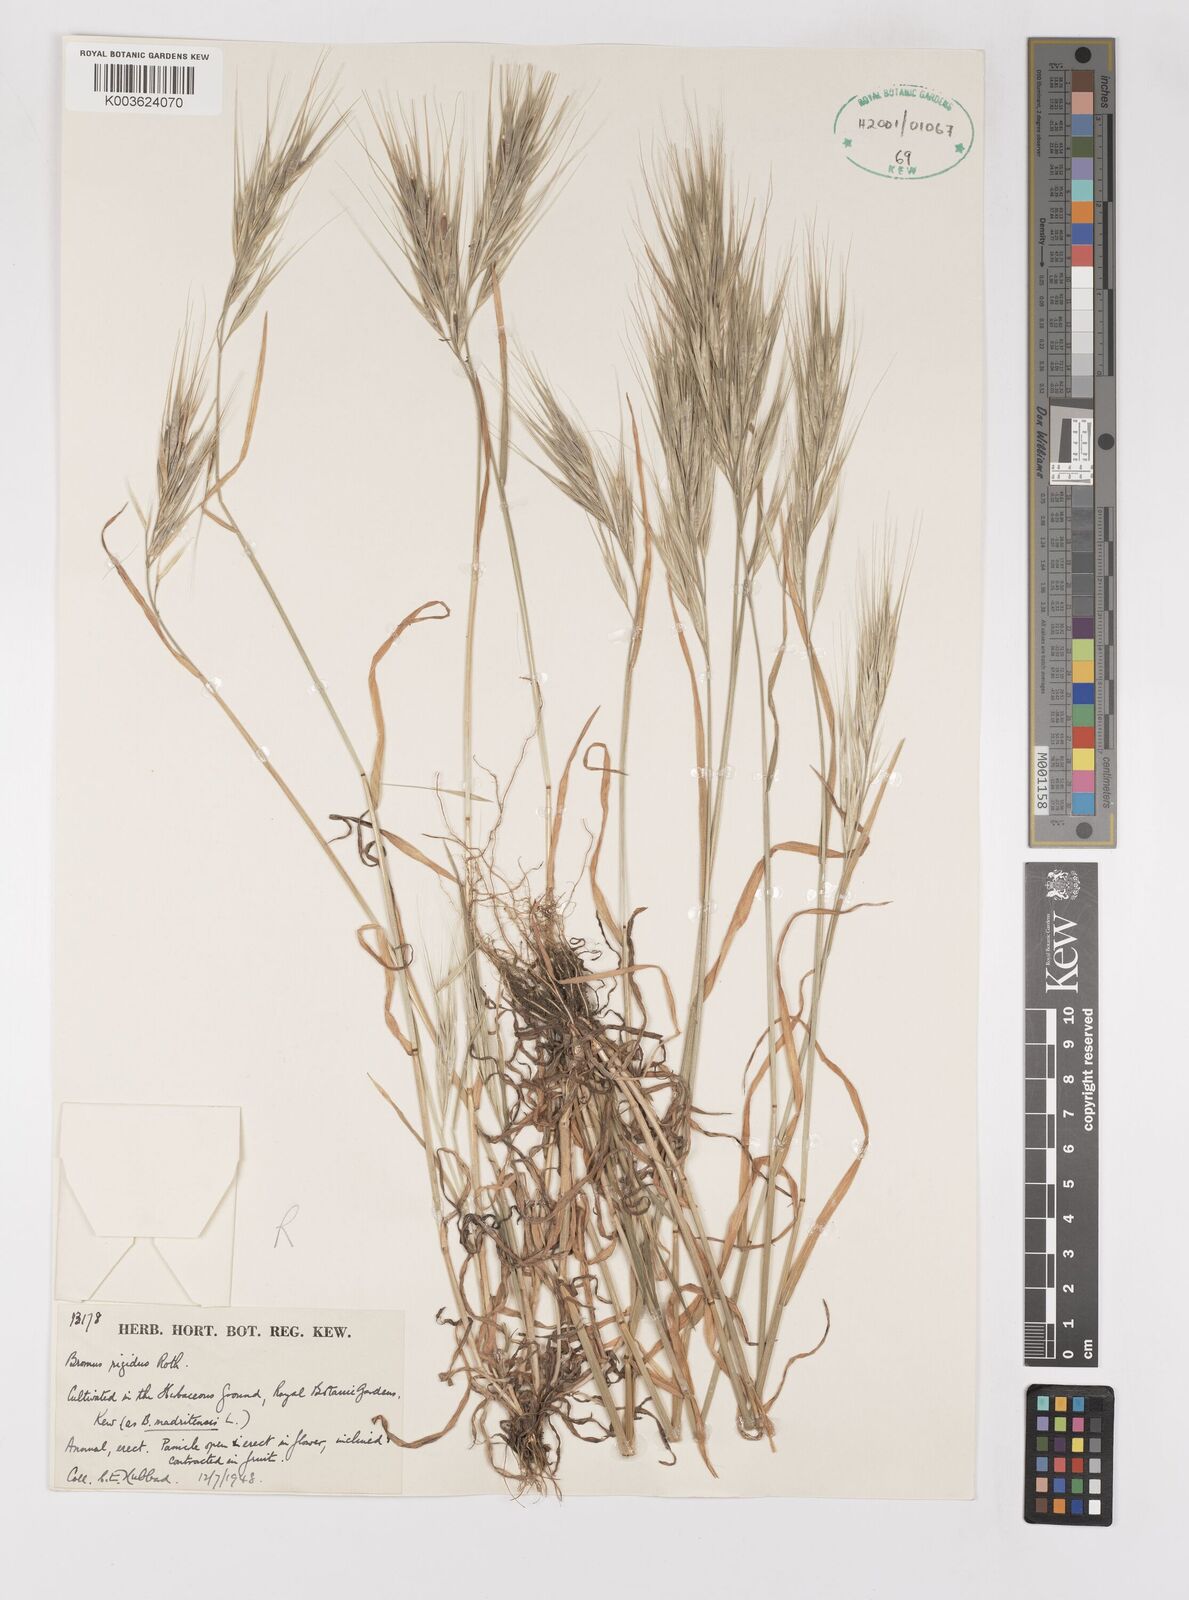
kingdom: Plantae
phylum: Tracheophyta
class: Liliopsida
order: Poales
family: Poaceae
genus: Bromus
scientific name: Bromus madritensis
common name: Compact brome
